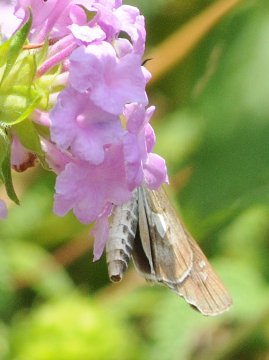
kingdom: Animalia
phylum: Arthropoda
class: Insecta
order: Lepidoptera
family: Hesperiidae
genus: Andronymus
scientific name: Andronymus neander
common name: Nomad Dart
